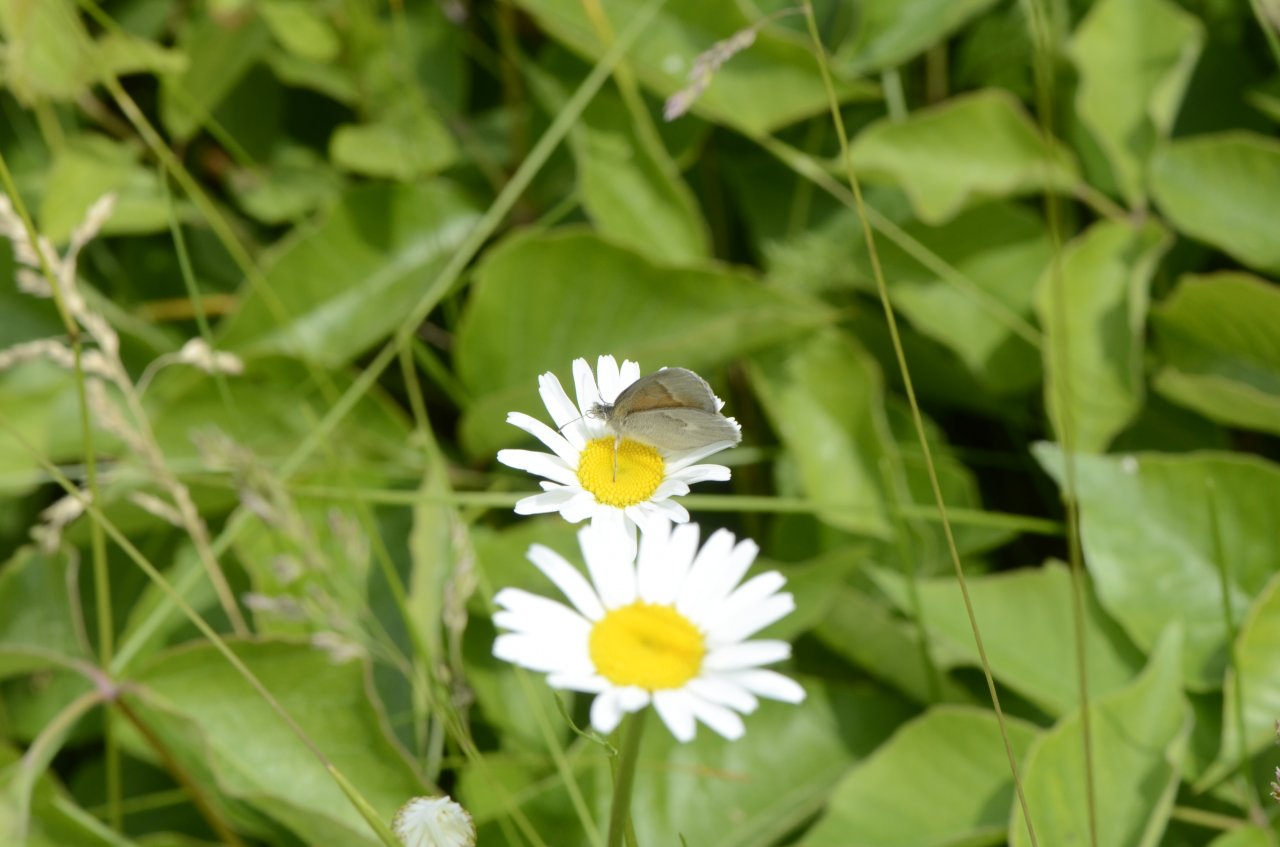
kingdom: Animalia
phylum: Arthropoda
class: Insecta
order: Lepidoptera
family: Nymphalidae
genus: Coenonympha
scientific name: Coenonympha tullia
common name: Large Heath
